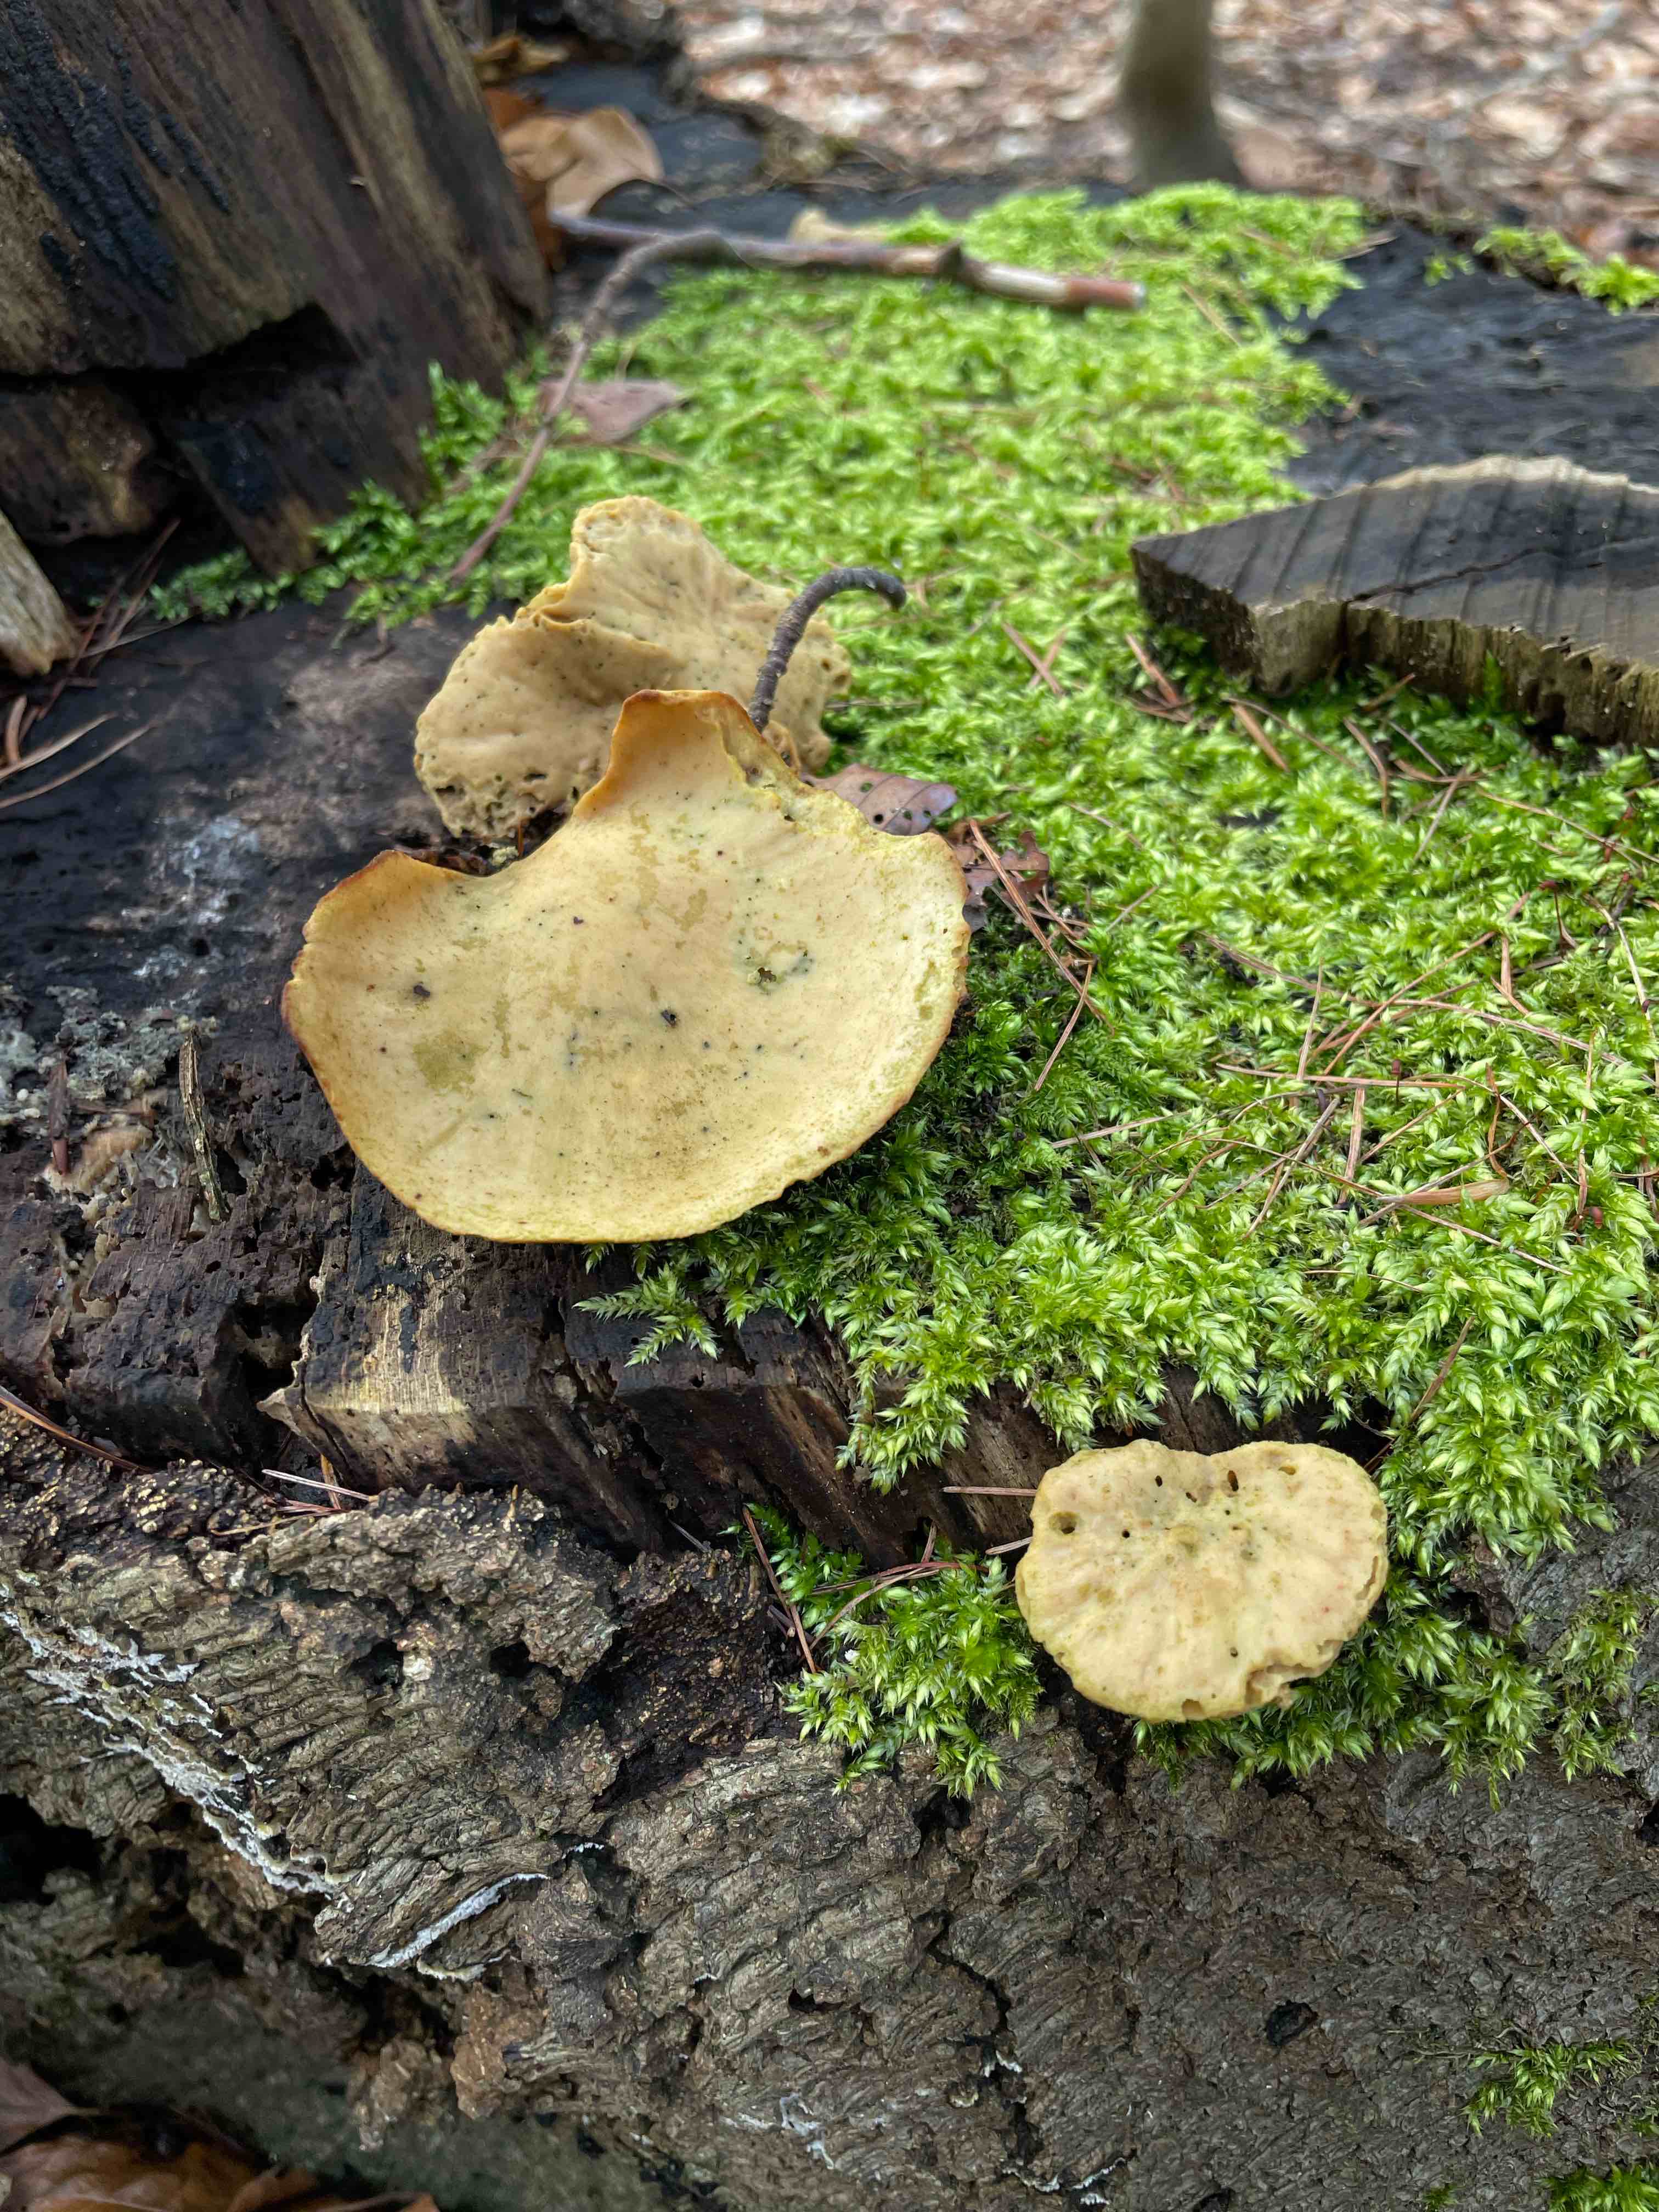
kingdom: Fungi
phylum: Basidiomycota
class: Agaricomycetes
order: Polyporales
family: Polyporaceae
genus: Cerioporus
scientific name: Cerioporus varius
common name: foranderlig stilkporesvamp
